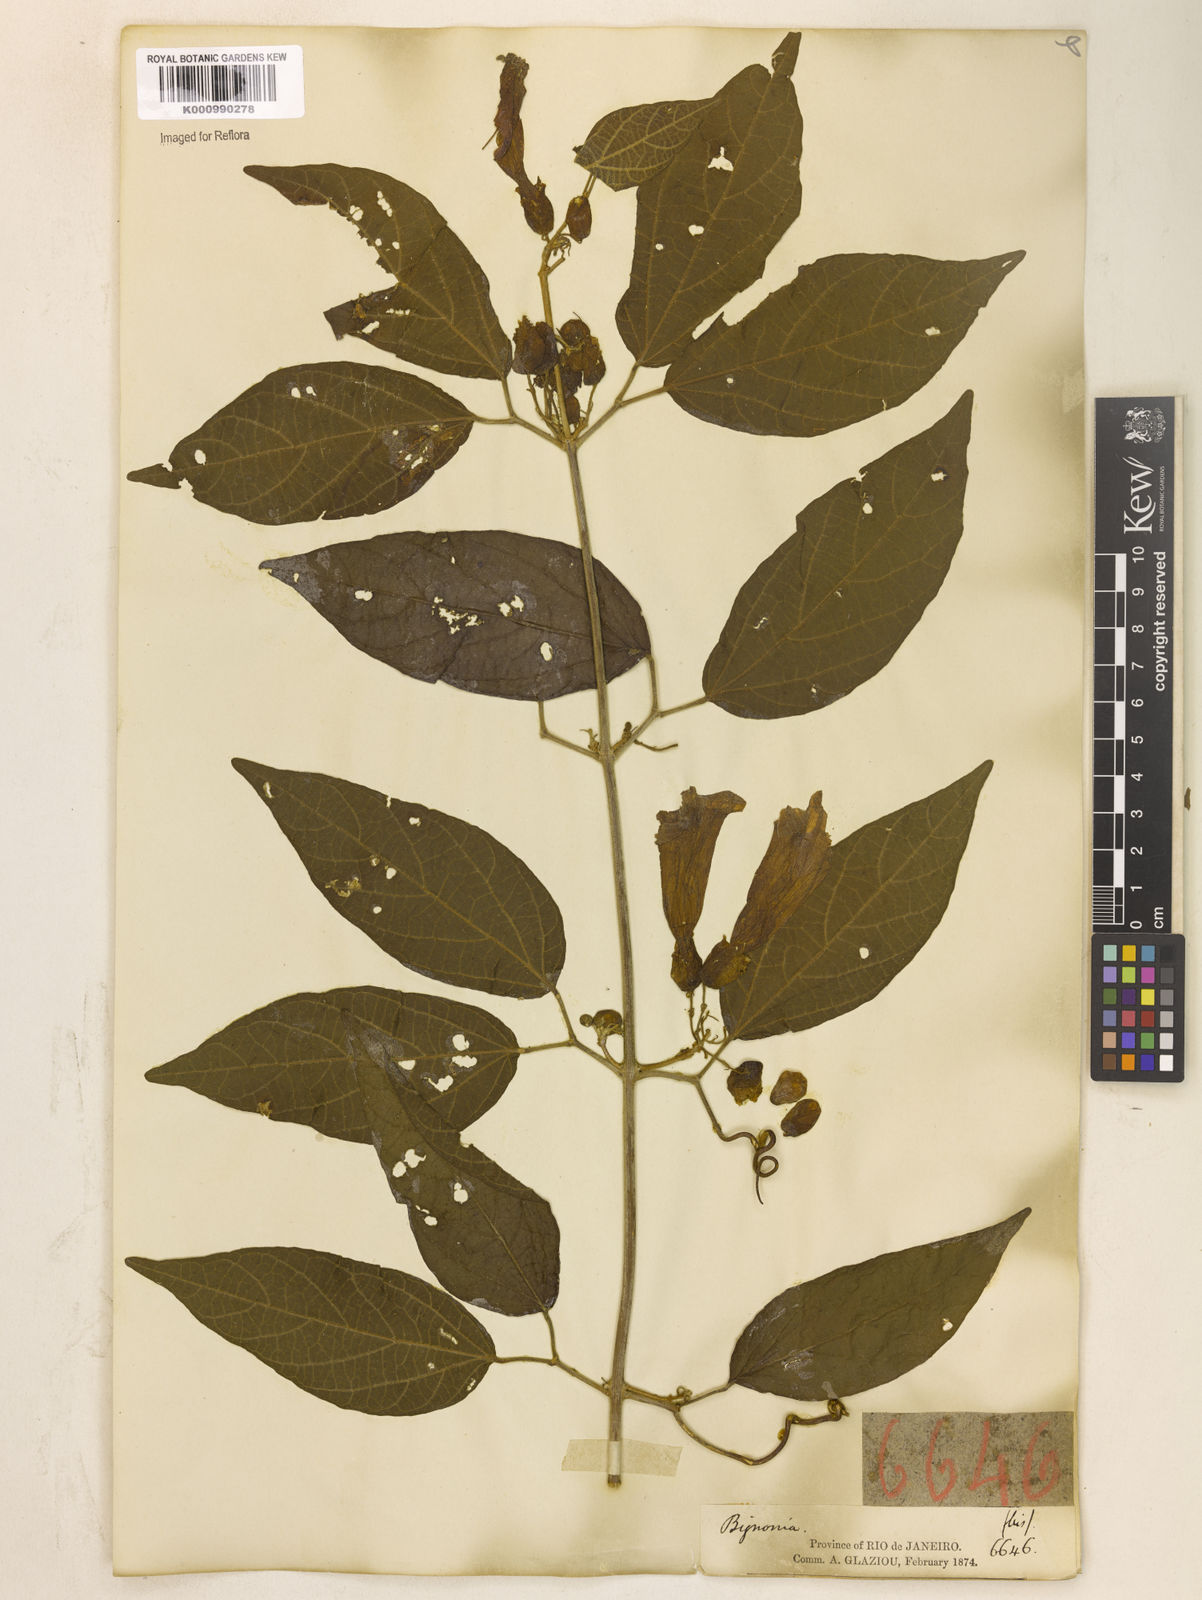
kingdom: Plantae
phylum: Tracheophyta
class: Magnoliopsida
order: Lamiales
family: Bignoniaceae
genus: Stizophyllum
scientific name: Stizophyllum perforatum
